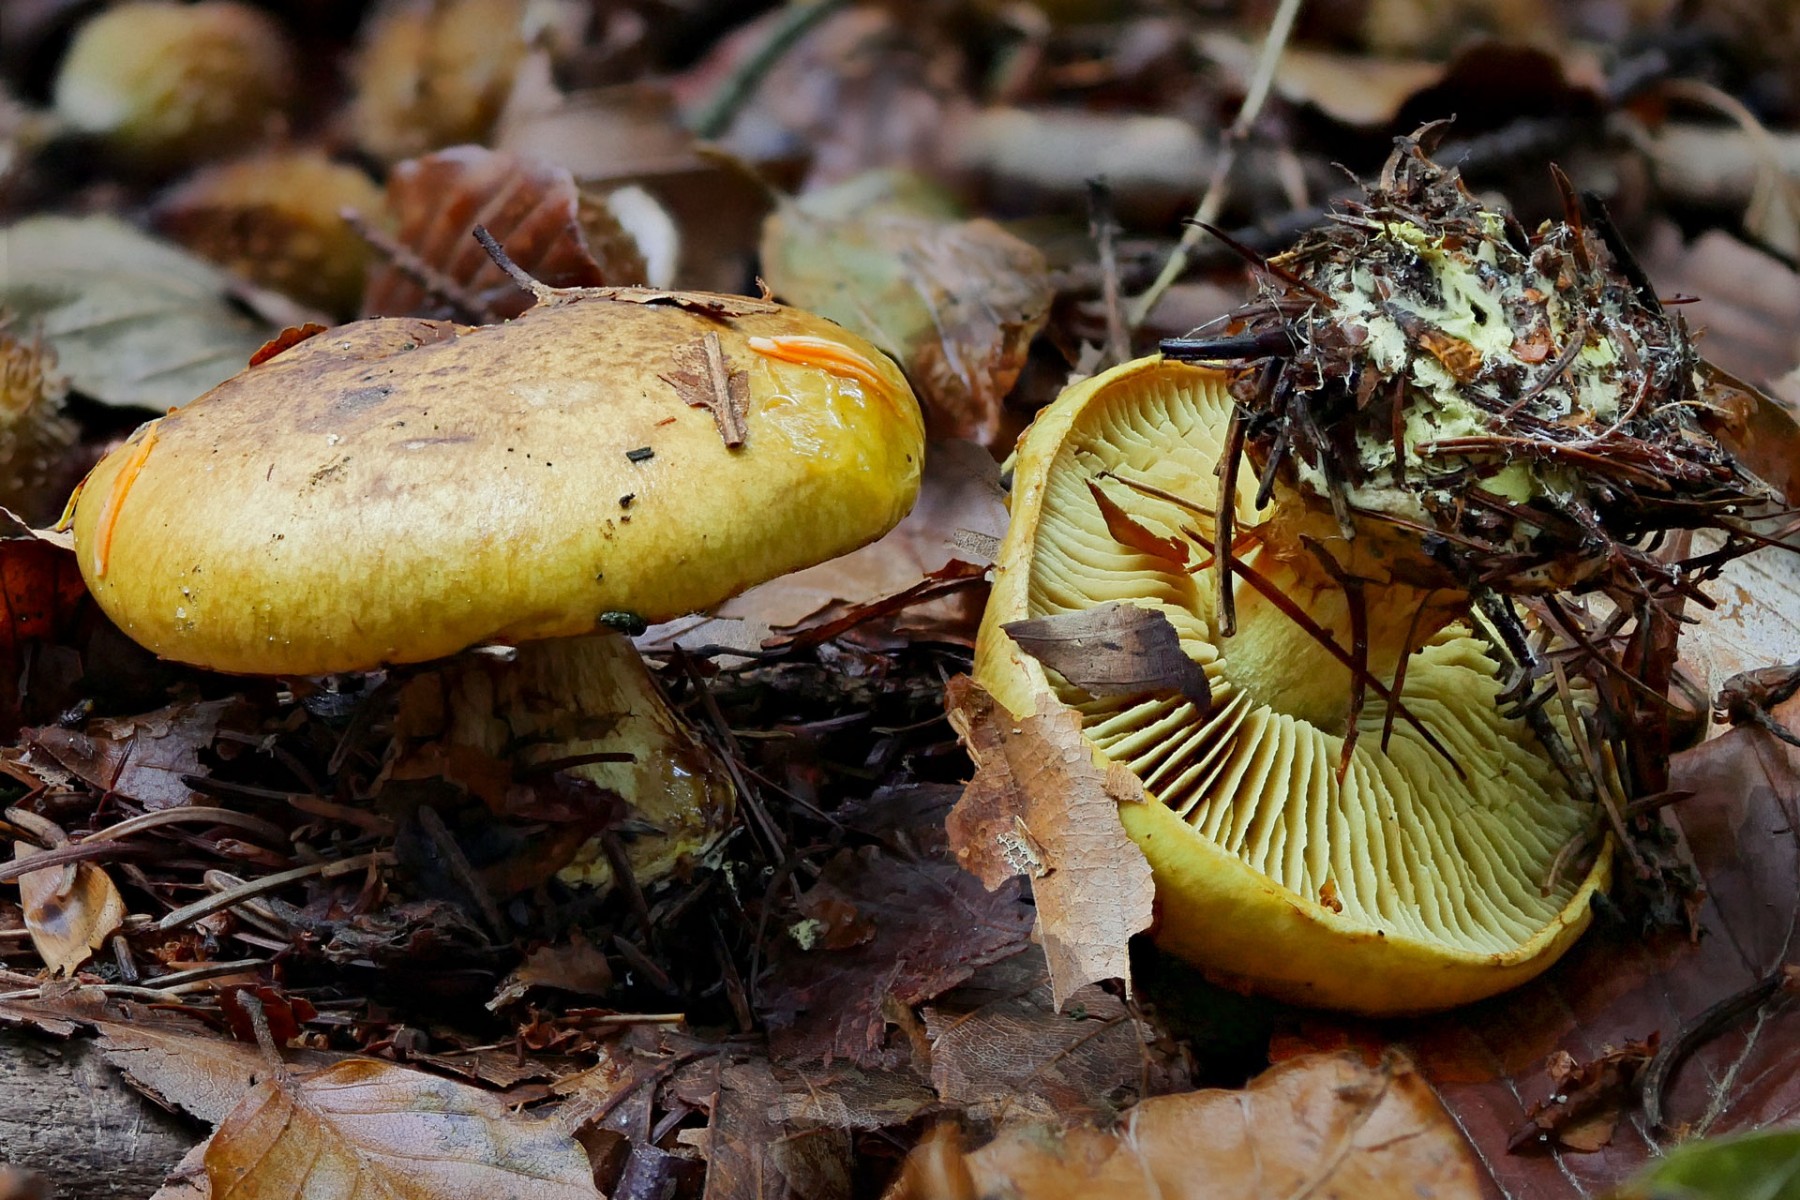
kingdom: Fungi
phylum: Basidiomycota
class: Agaricomycetes
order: Agaricales
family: Cortinariaceae
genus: Calonarius
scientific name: Calonarius citrinus
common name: citrongul slørhat
